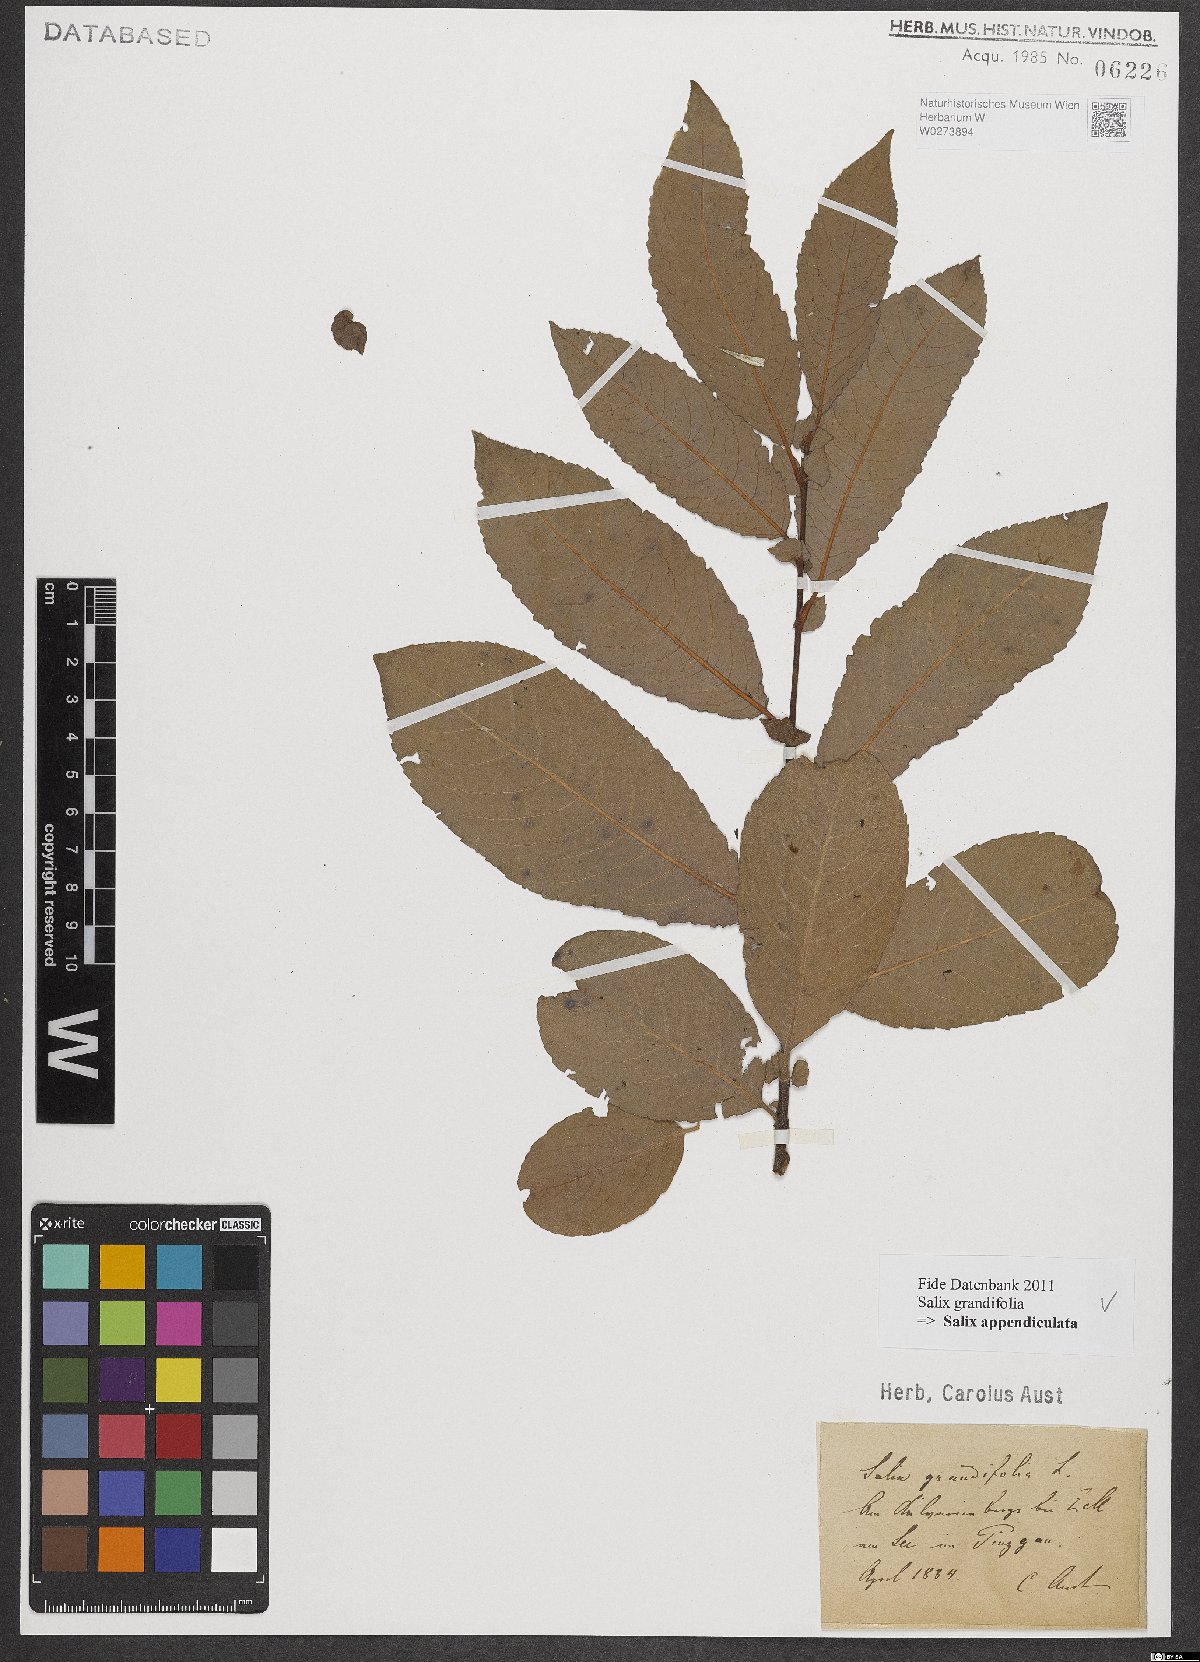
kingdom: Plantae
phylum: Tracheophyta
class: Magnoliopsida
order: Malpighiales
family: Salicaceae
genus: Salix
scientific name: Salix appendiculata
